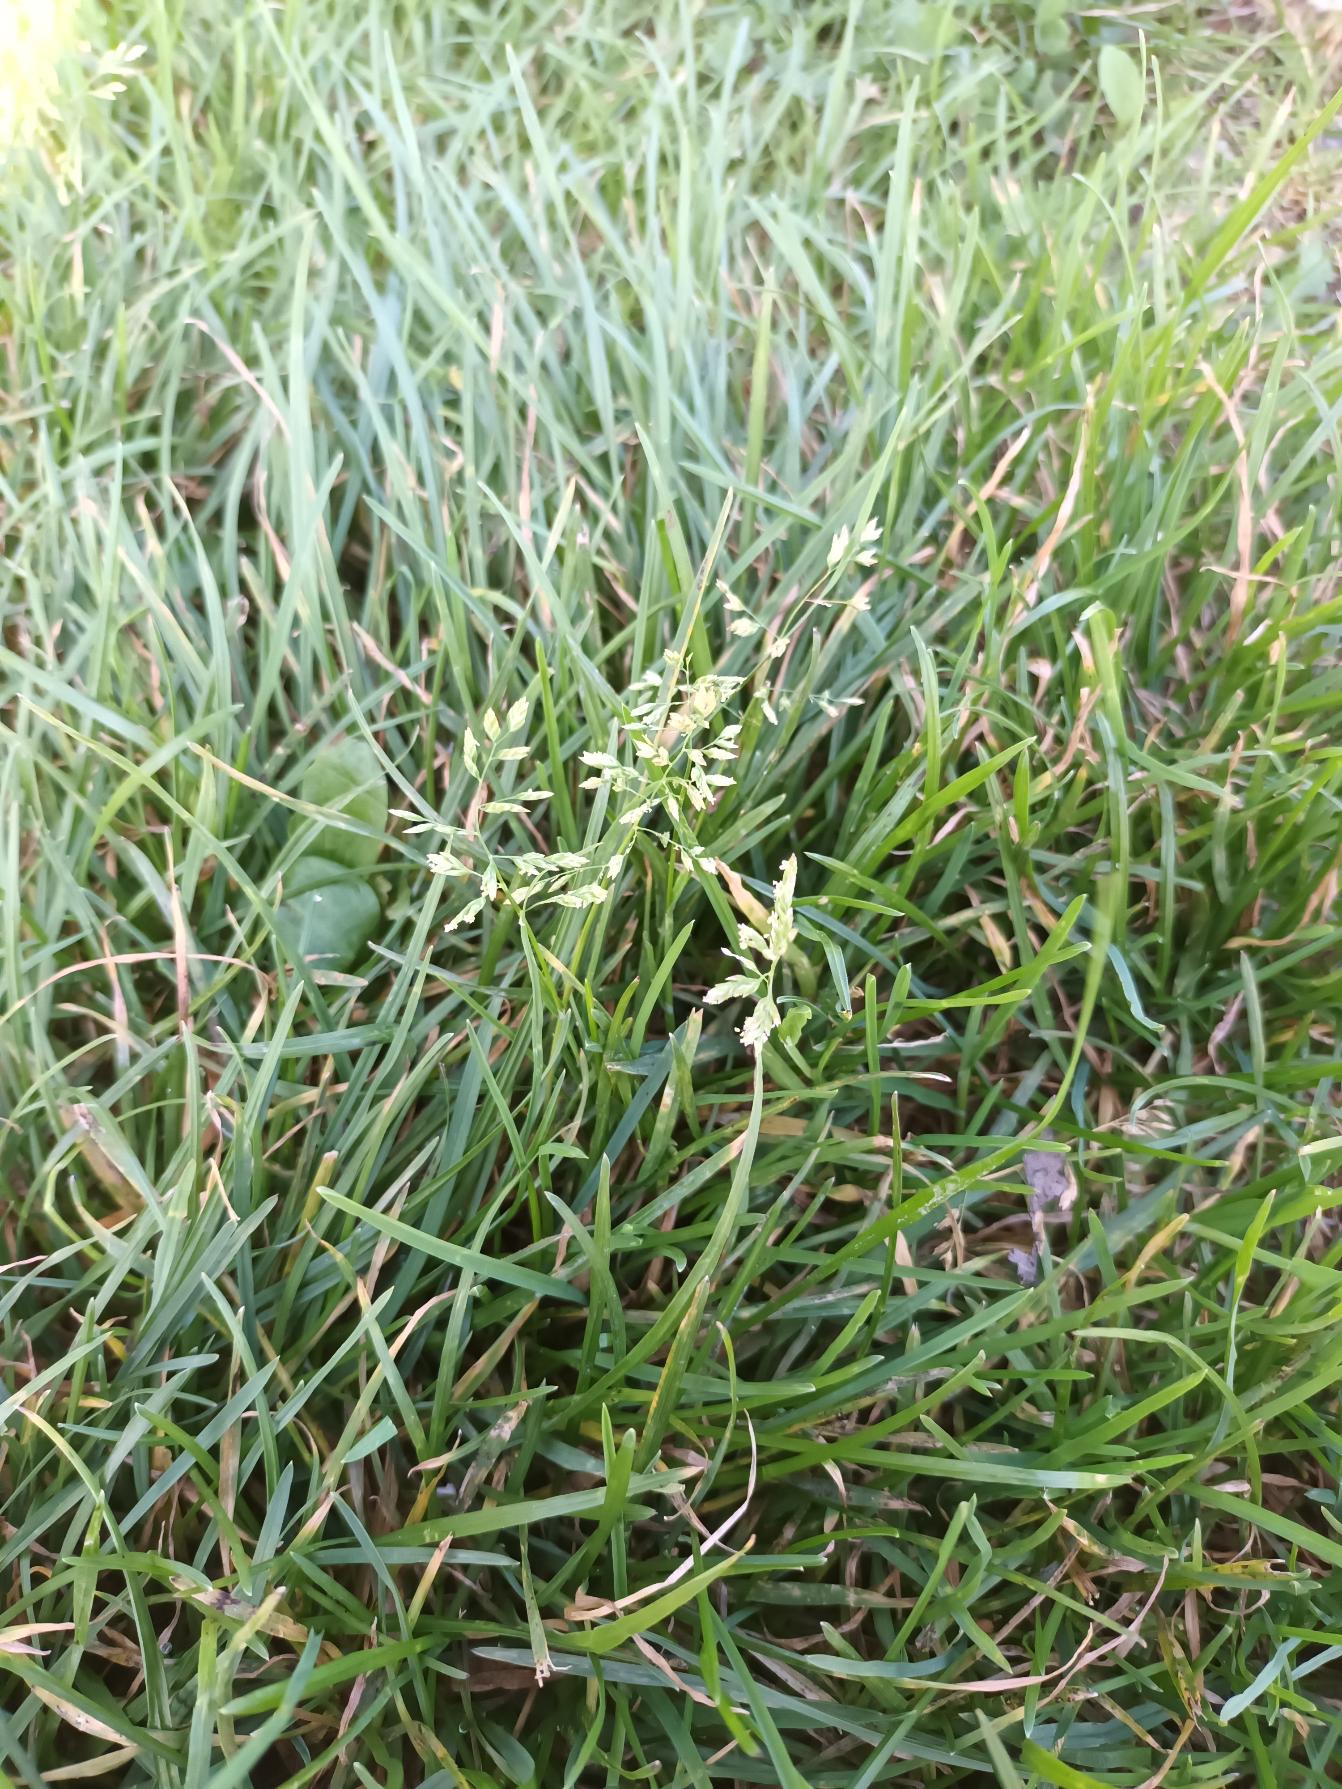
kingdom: Plantae
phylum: Tracheophyta
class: Liliopsida
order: Poales
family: Poaceae
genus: Poa
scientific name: Poa annua
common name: Enårig rapgræs
